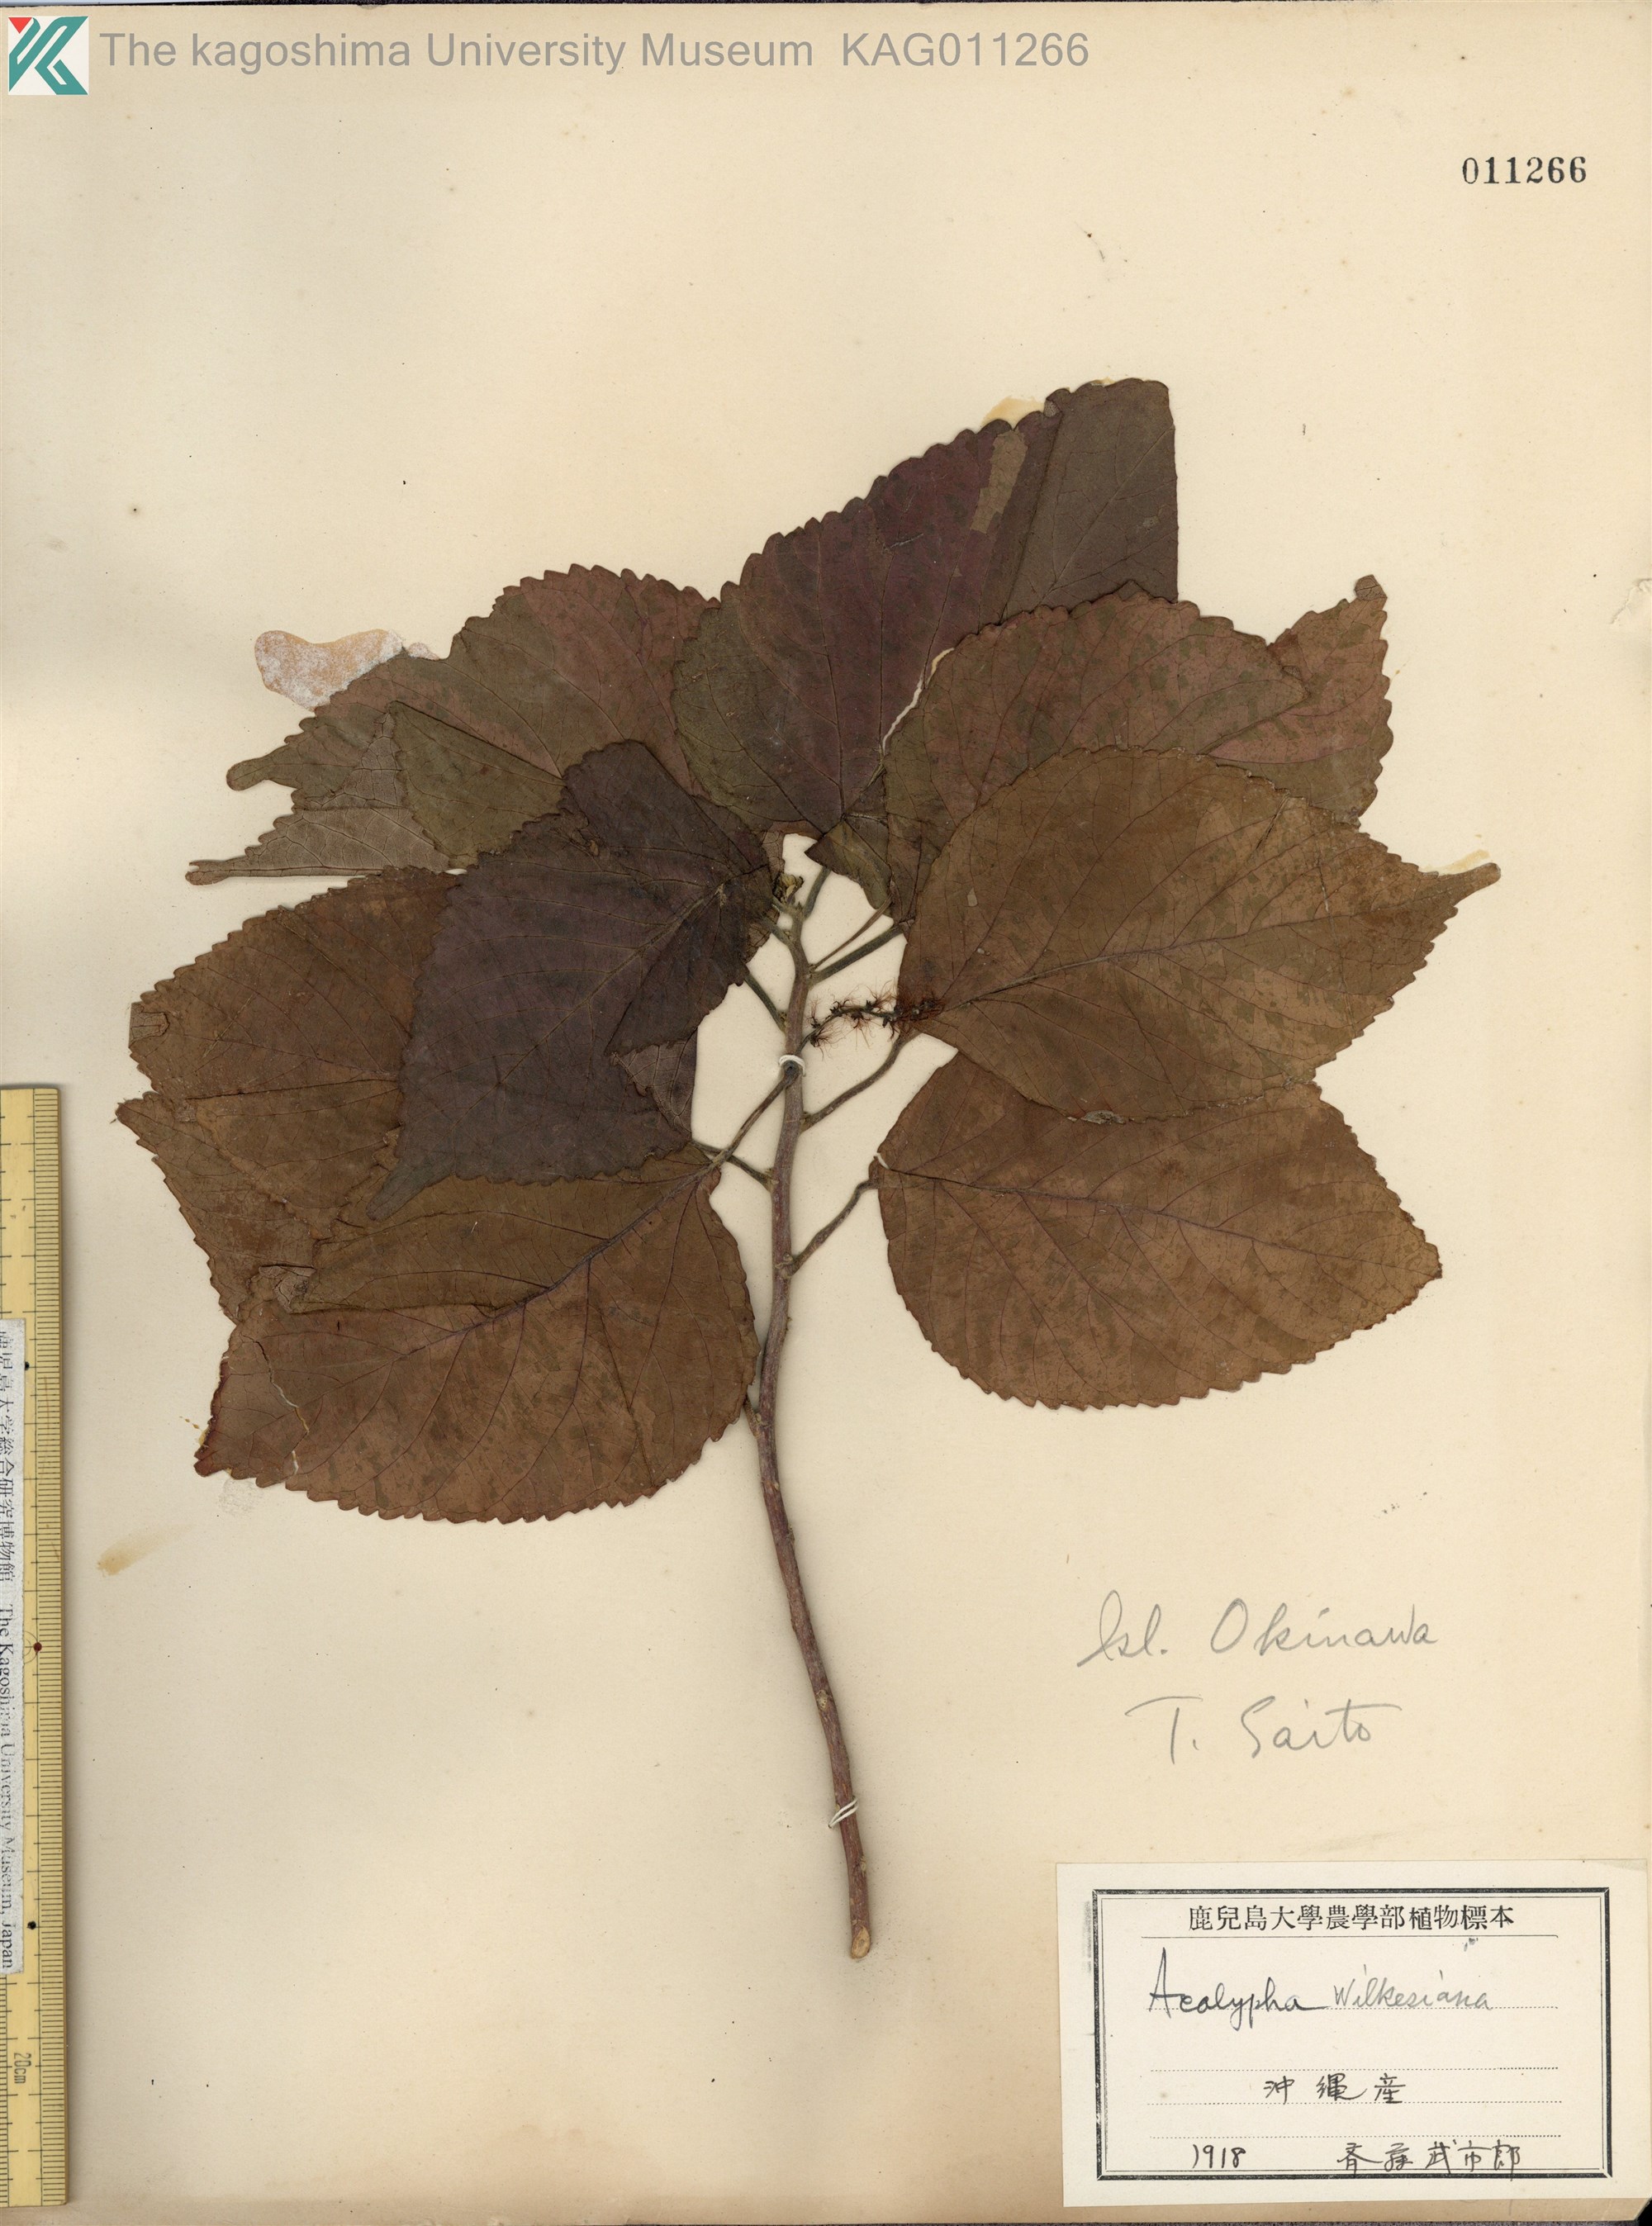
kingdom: Plantae
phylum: Tracheophyta
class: Magnoliopsida
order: Malpighiales
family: Euphorbiaceae
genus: Acalypha
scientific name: Acalypha wilkesiana
